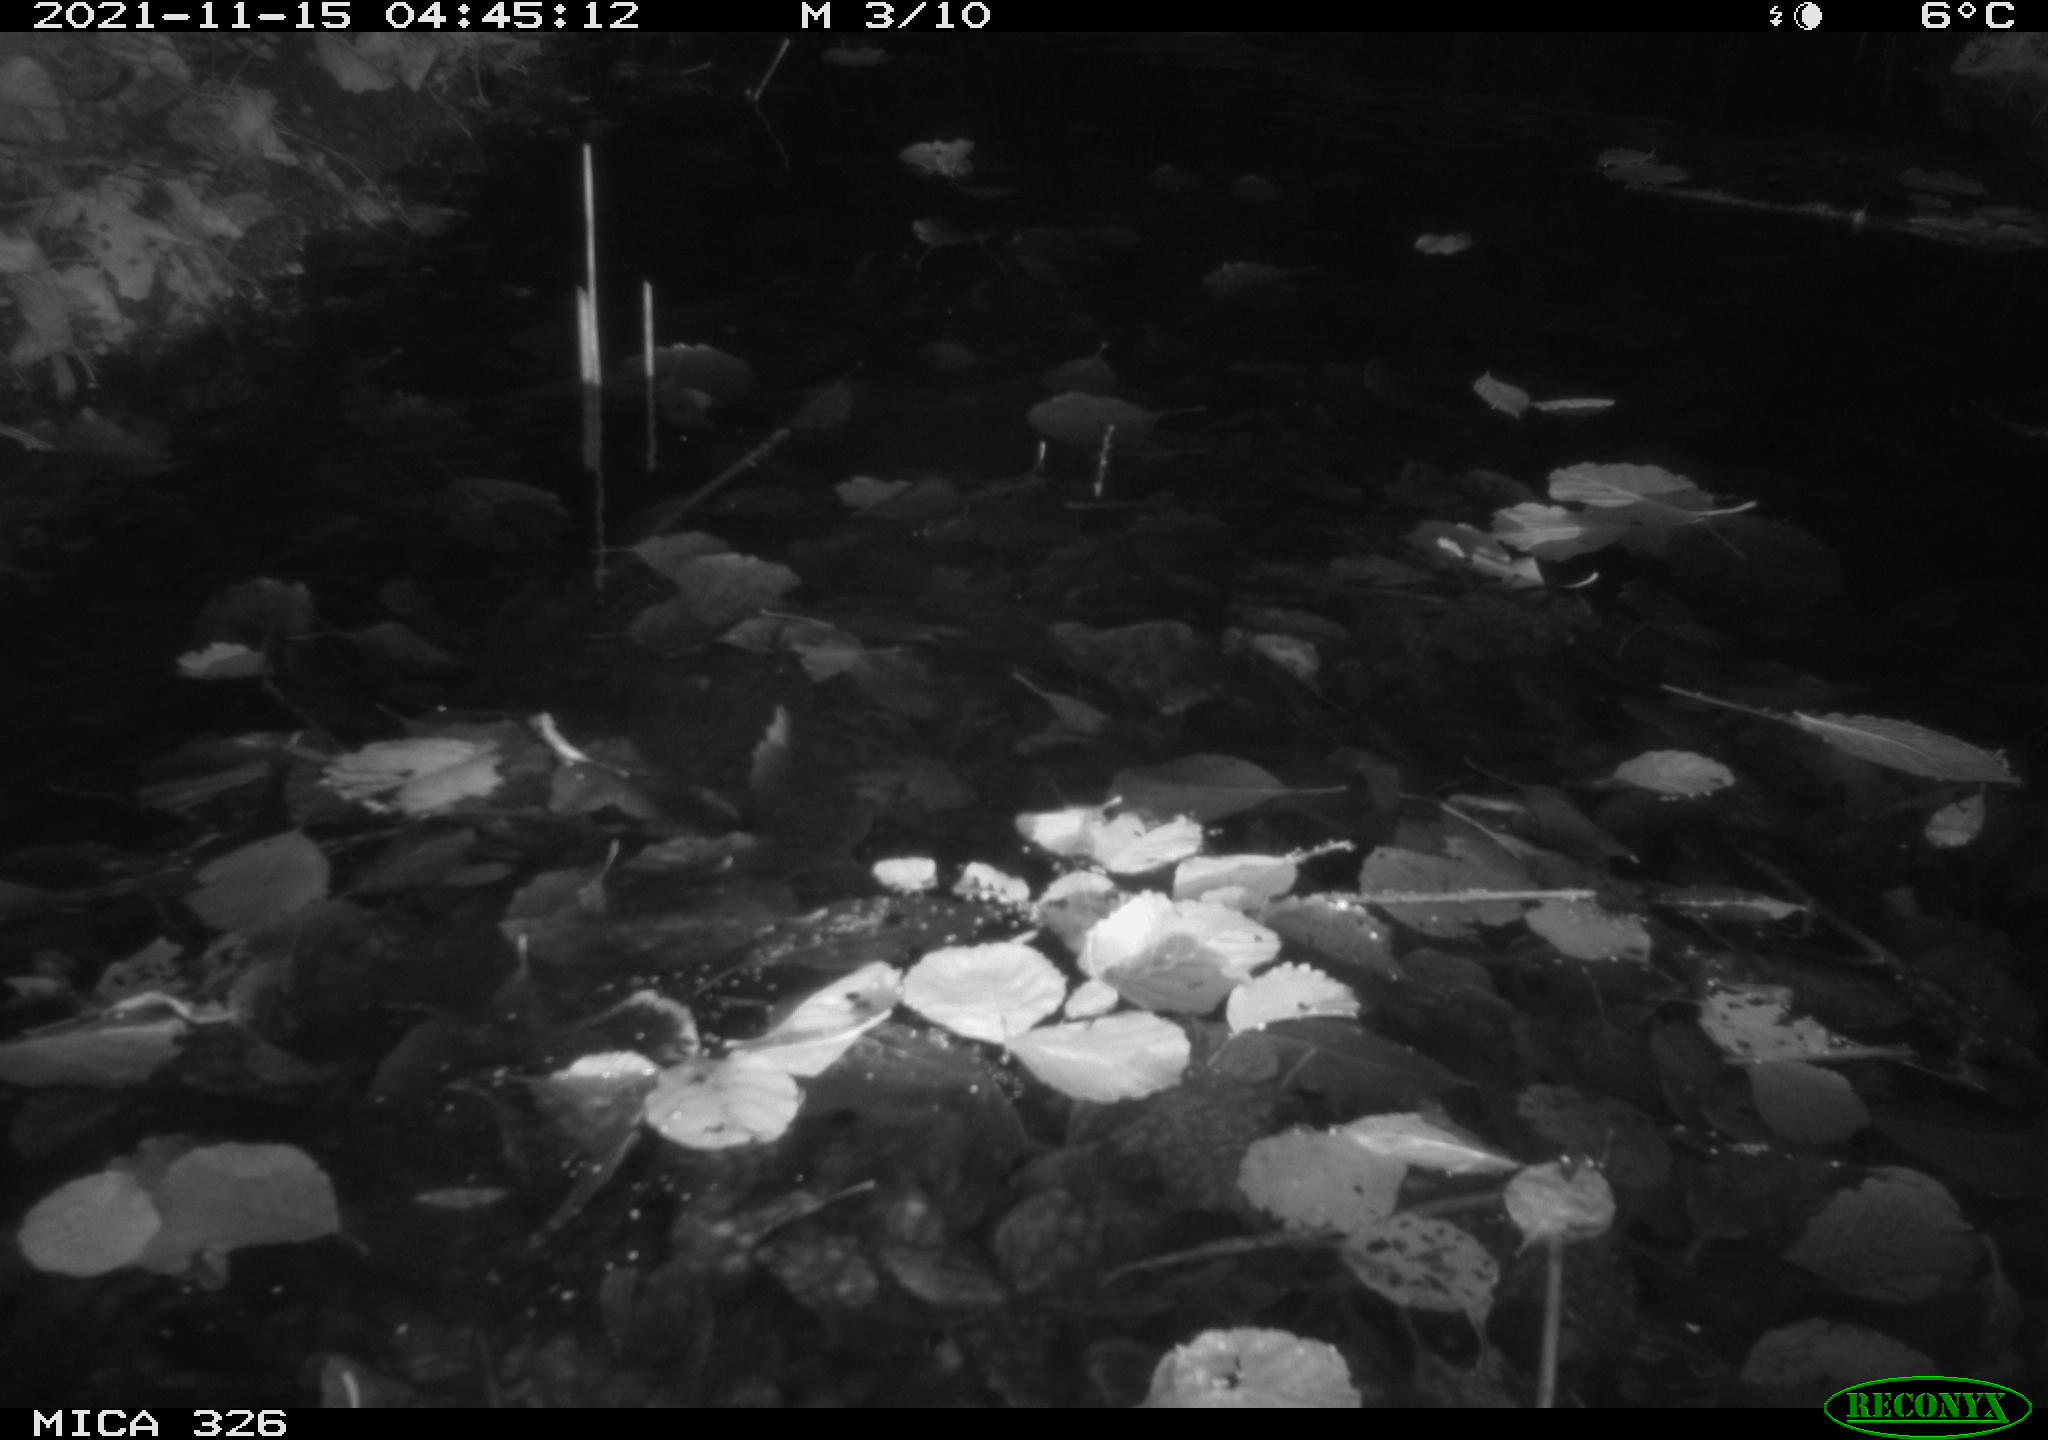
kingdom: Animalia
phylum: Chordata
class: Mammalia
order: Rodentia
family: Cricetidae
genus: Ondatra
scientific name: Ondatra zibethicus
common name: Muskrat
